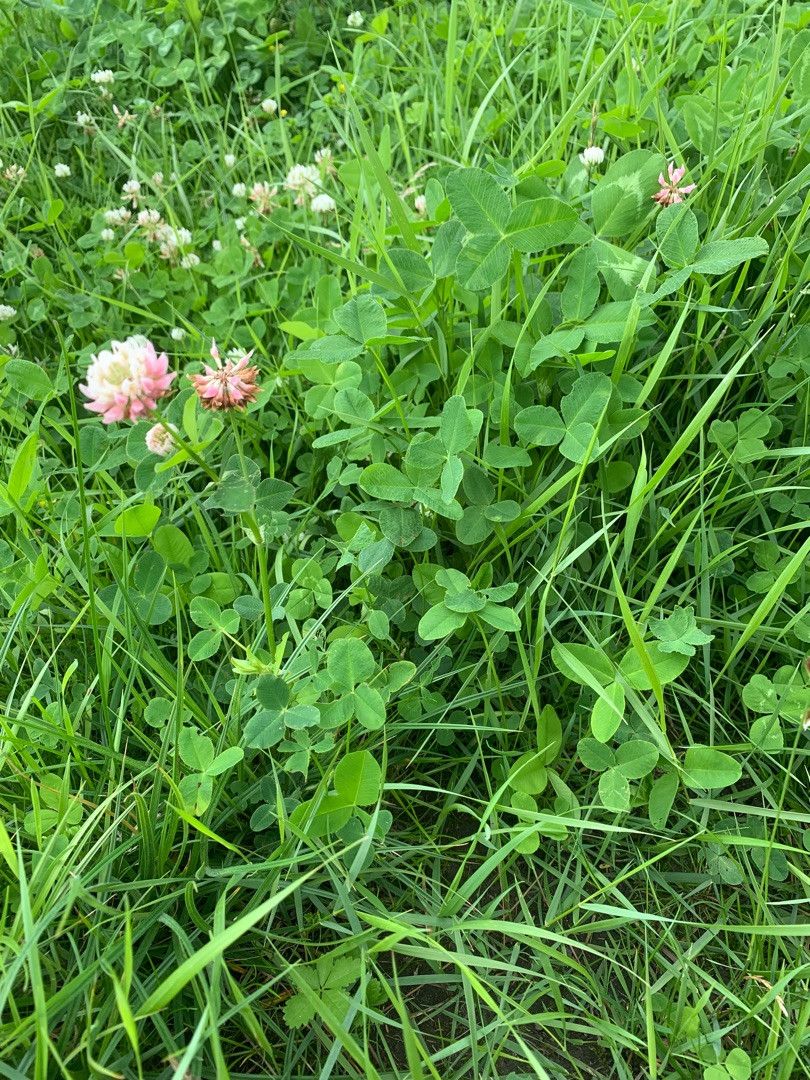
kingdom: Plantae
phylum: Tracheophyta
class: Magnoliopsida
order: Fabales
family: Fabaceae
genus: Trifolium
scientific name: Trifolium hybridum
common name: Alsike-kløver
